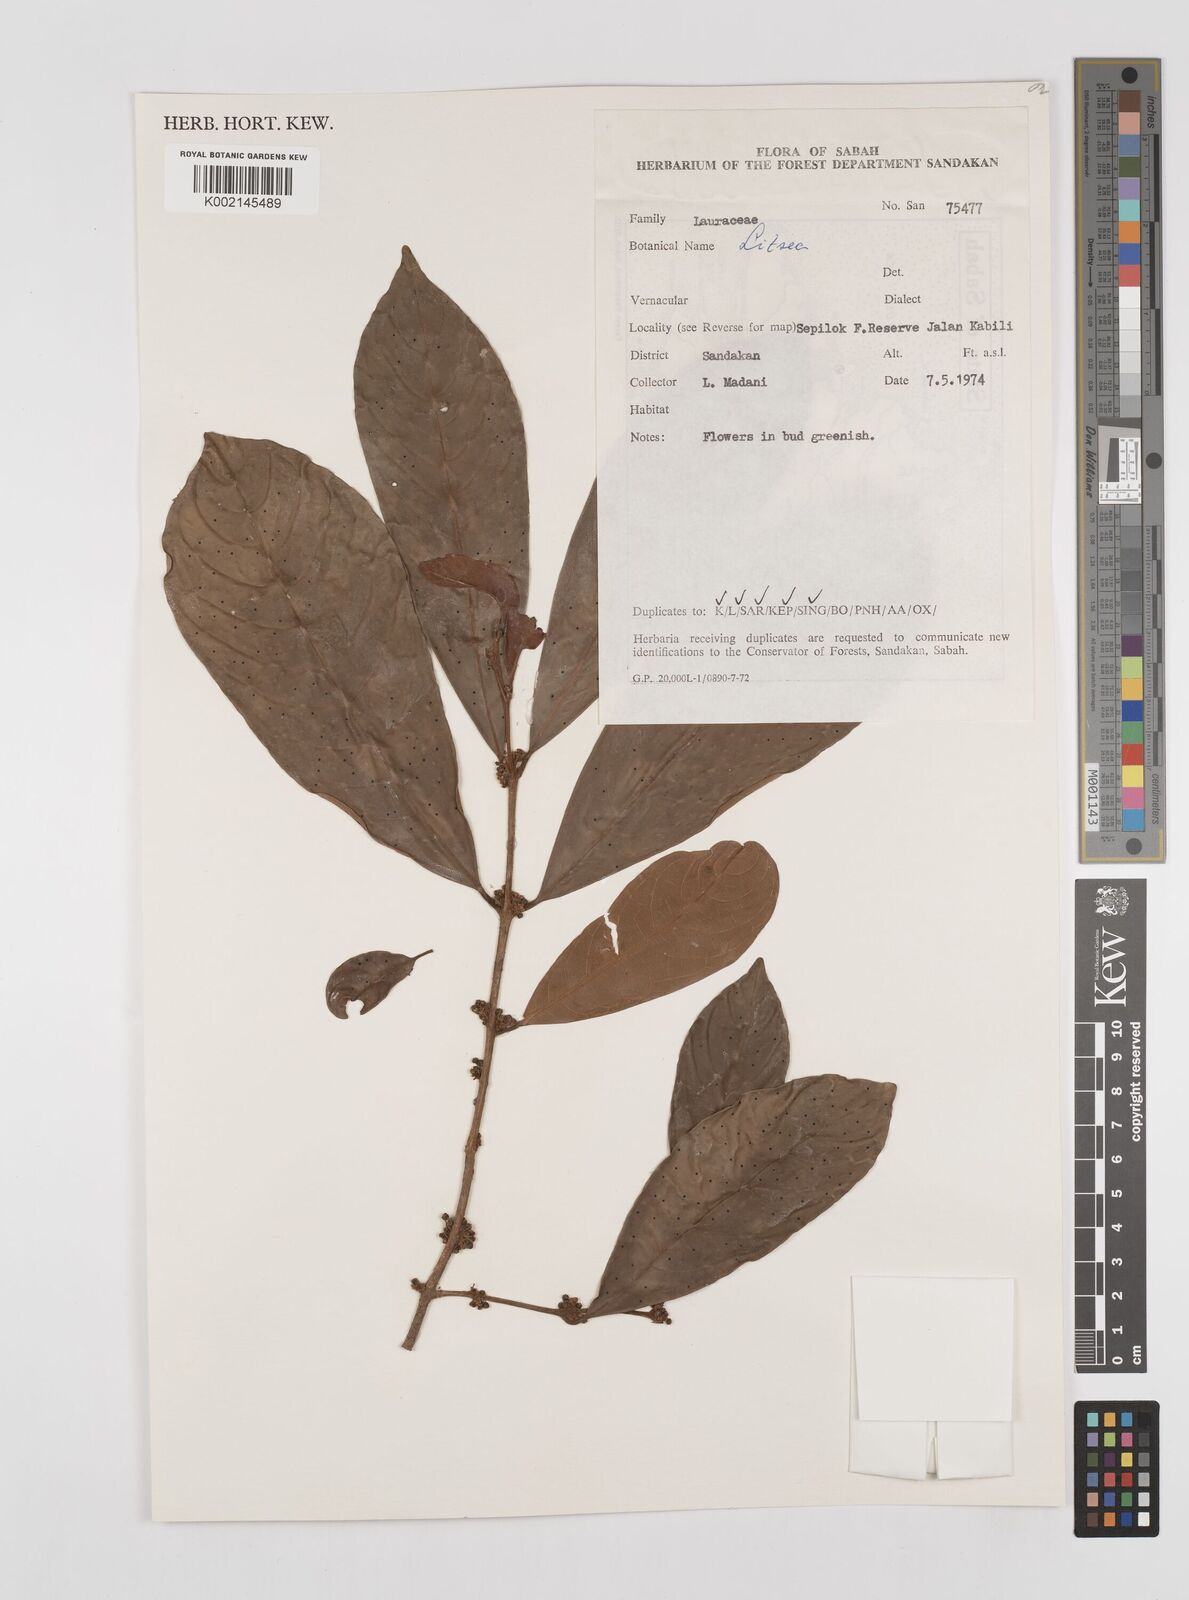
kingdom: Plantae
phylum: Tracheophyta
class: Magnoliopsida
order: Laurales
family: Lauraceae
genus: Litsea
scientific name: Litsea
